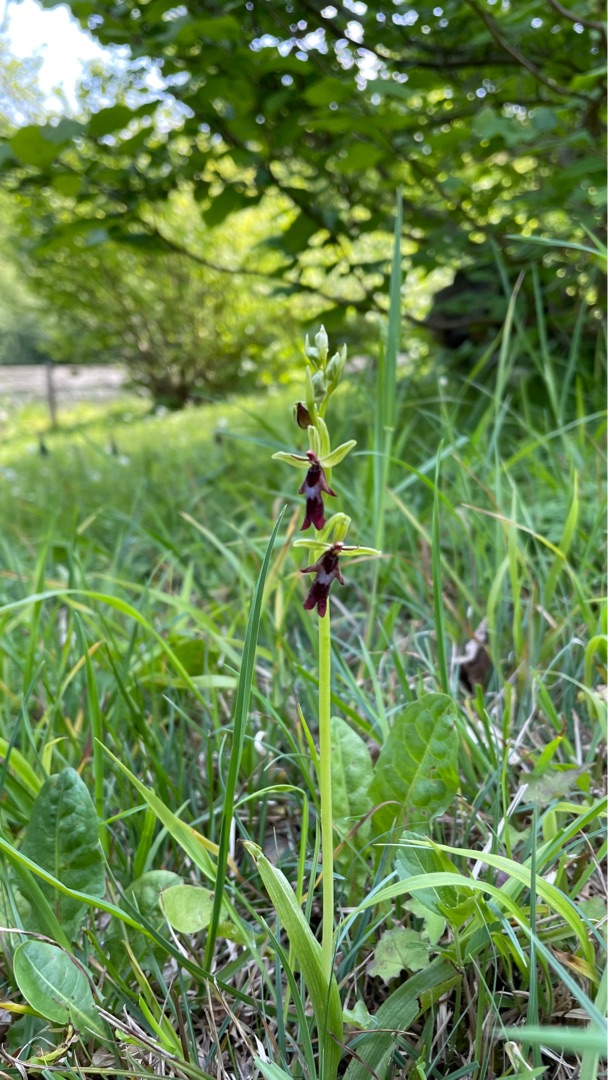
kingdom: Plantae
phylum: Tracheophyta
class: Liliopsida
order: Asparagales
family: Orchidaceae
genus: Ophrys
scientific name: Ophrys insectifera
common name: Flueblomst
